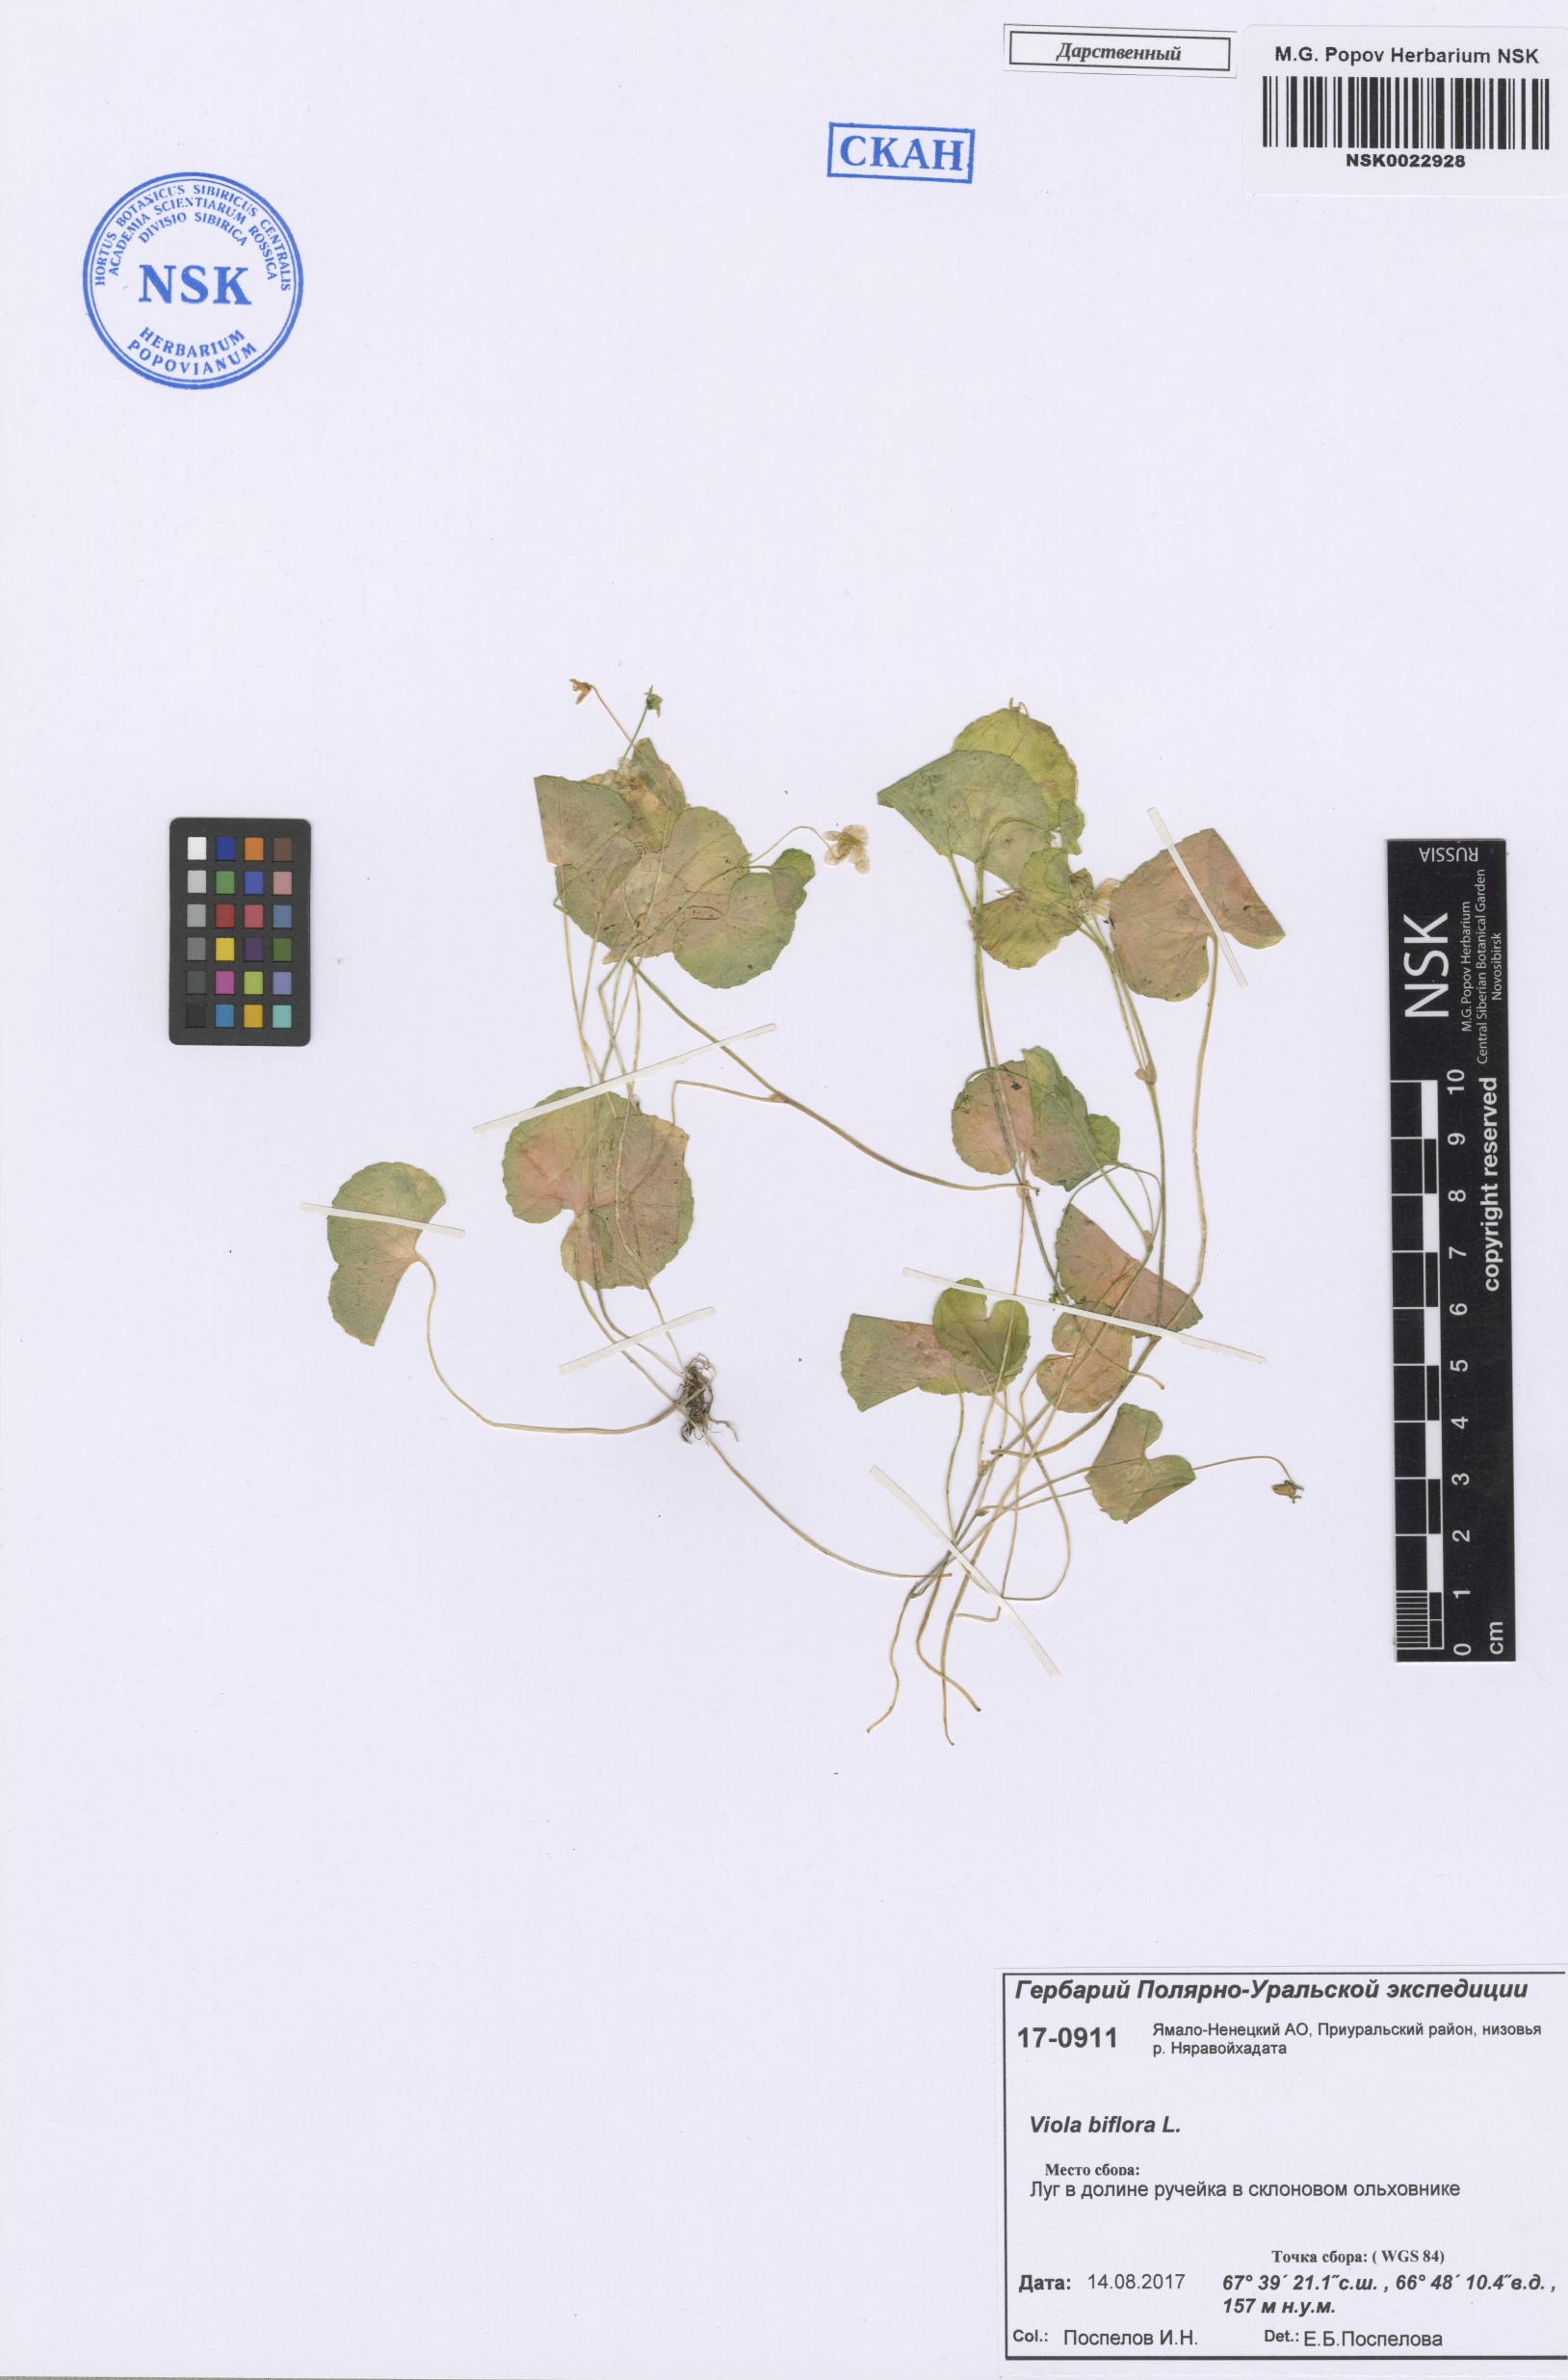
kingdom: Plantae
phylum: Tracheophyta
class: Magnoliopsida
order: Malpighiales
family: Violaceae
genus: Viola
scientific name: Viola biflora
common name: Alpine yellow violet
